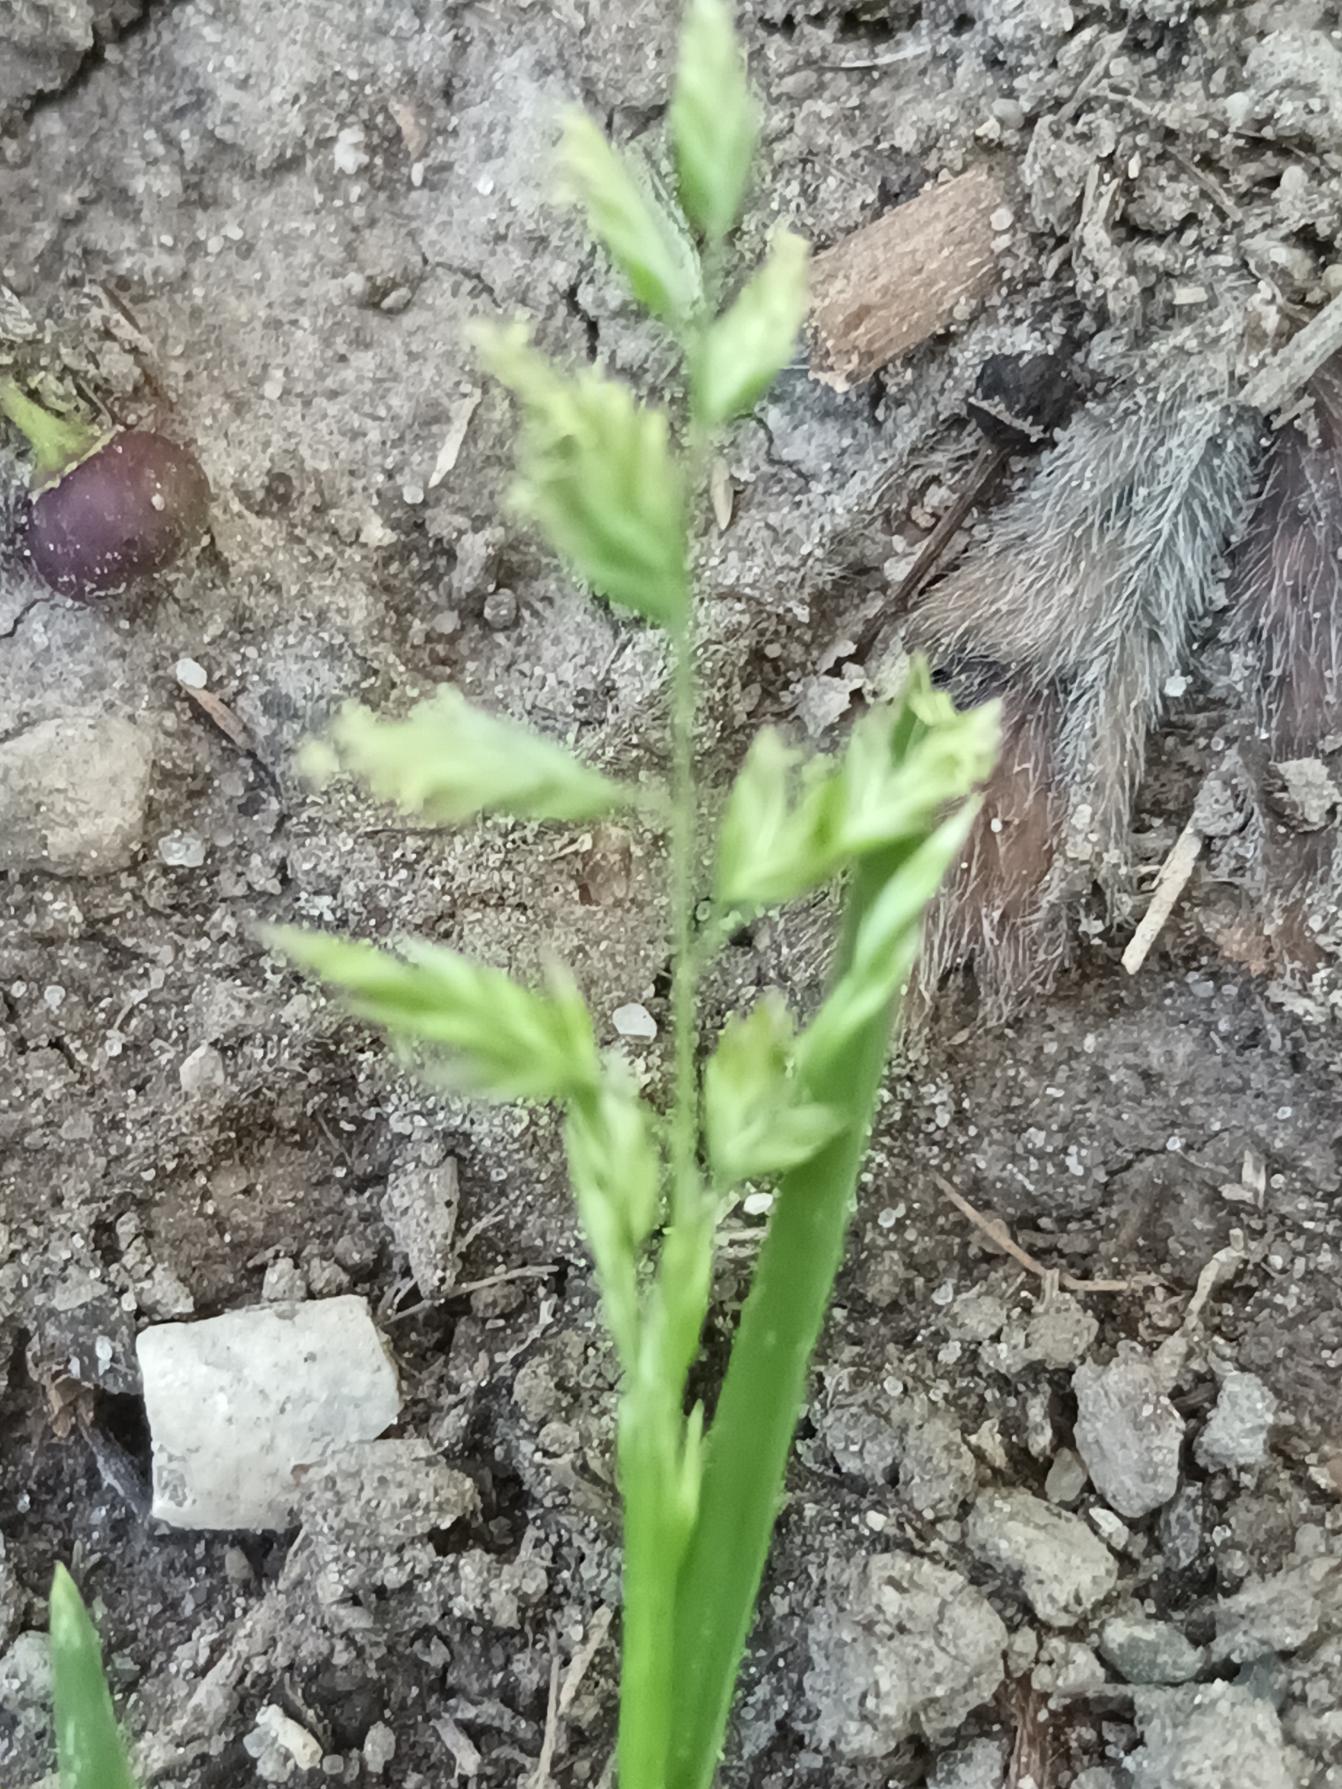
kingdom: Plantae
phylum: Tracheophyta
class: Liliopsida
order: Poales
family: Poaceae
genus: Poa
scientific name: Poa annua
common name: Enårig rapgræs
